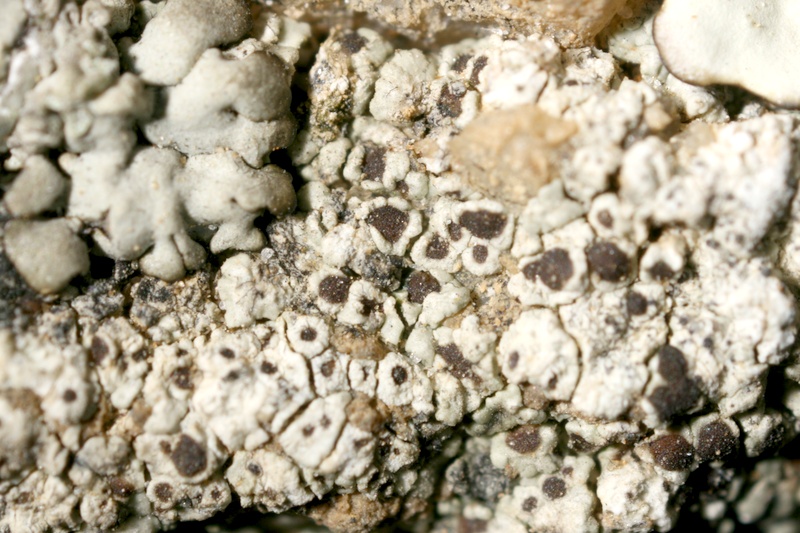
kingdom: Fungi
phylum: Ascomycota
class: Lecanoromycetes
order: Lecanorales
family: Lecanoraceae
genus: Lecanora
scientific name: Lecanora
